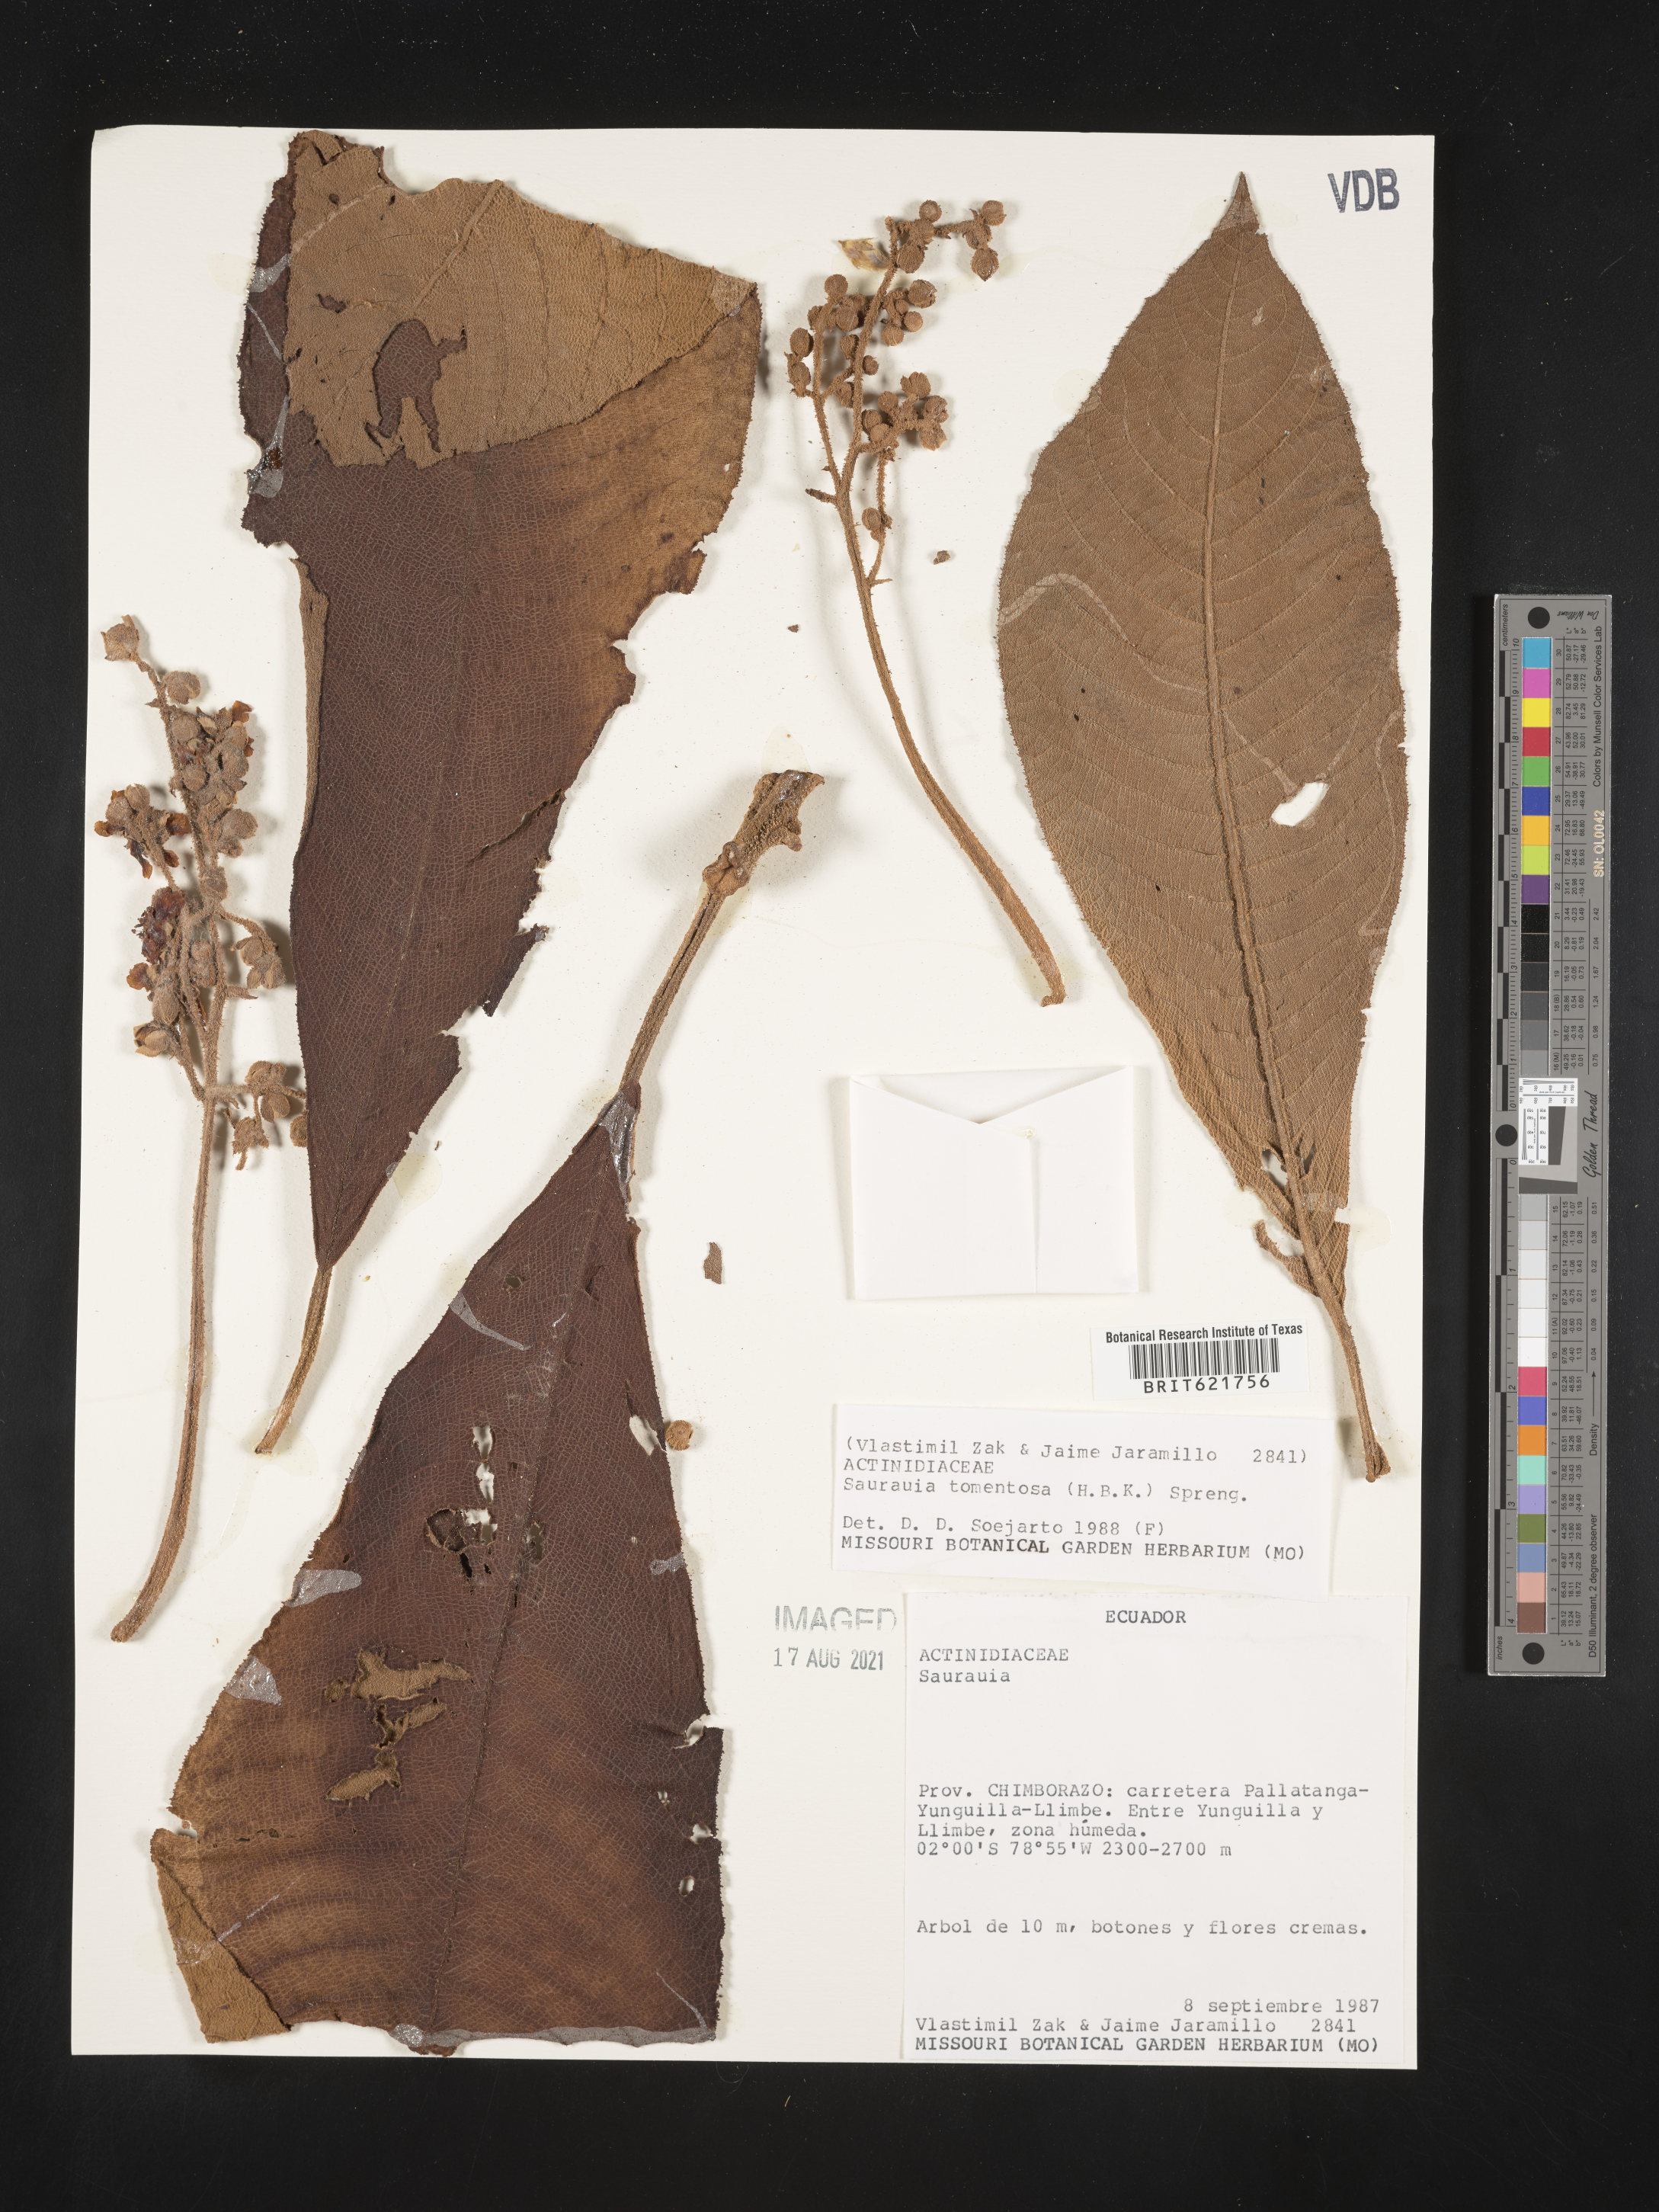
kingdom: Plantae
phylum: Tracheophyta
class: Magnoliopsida
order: Ericales
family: Actinidiaceae
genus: Saurauia
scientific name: Saurauia tomentosa
